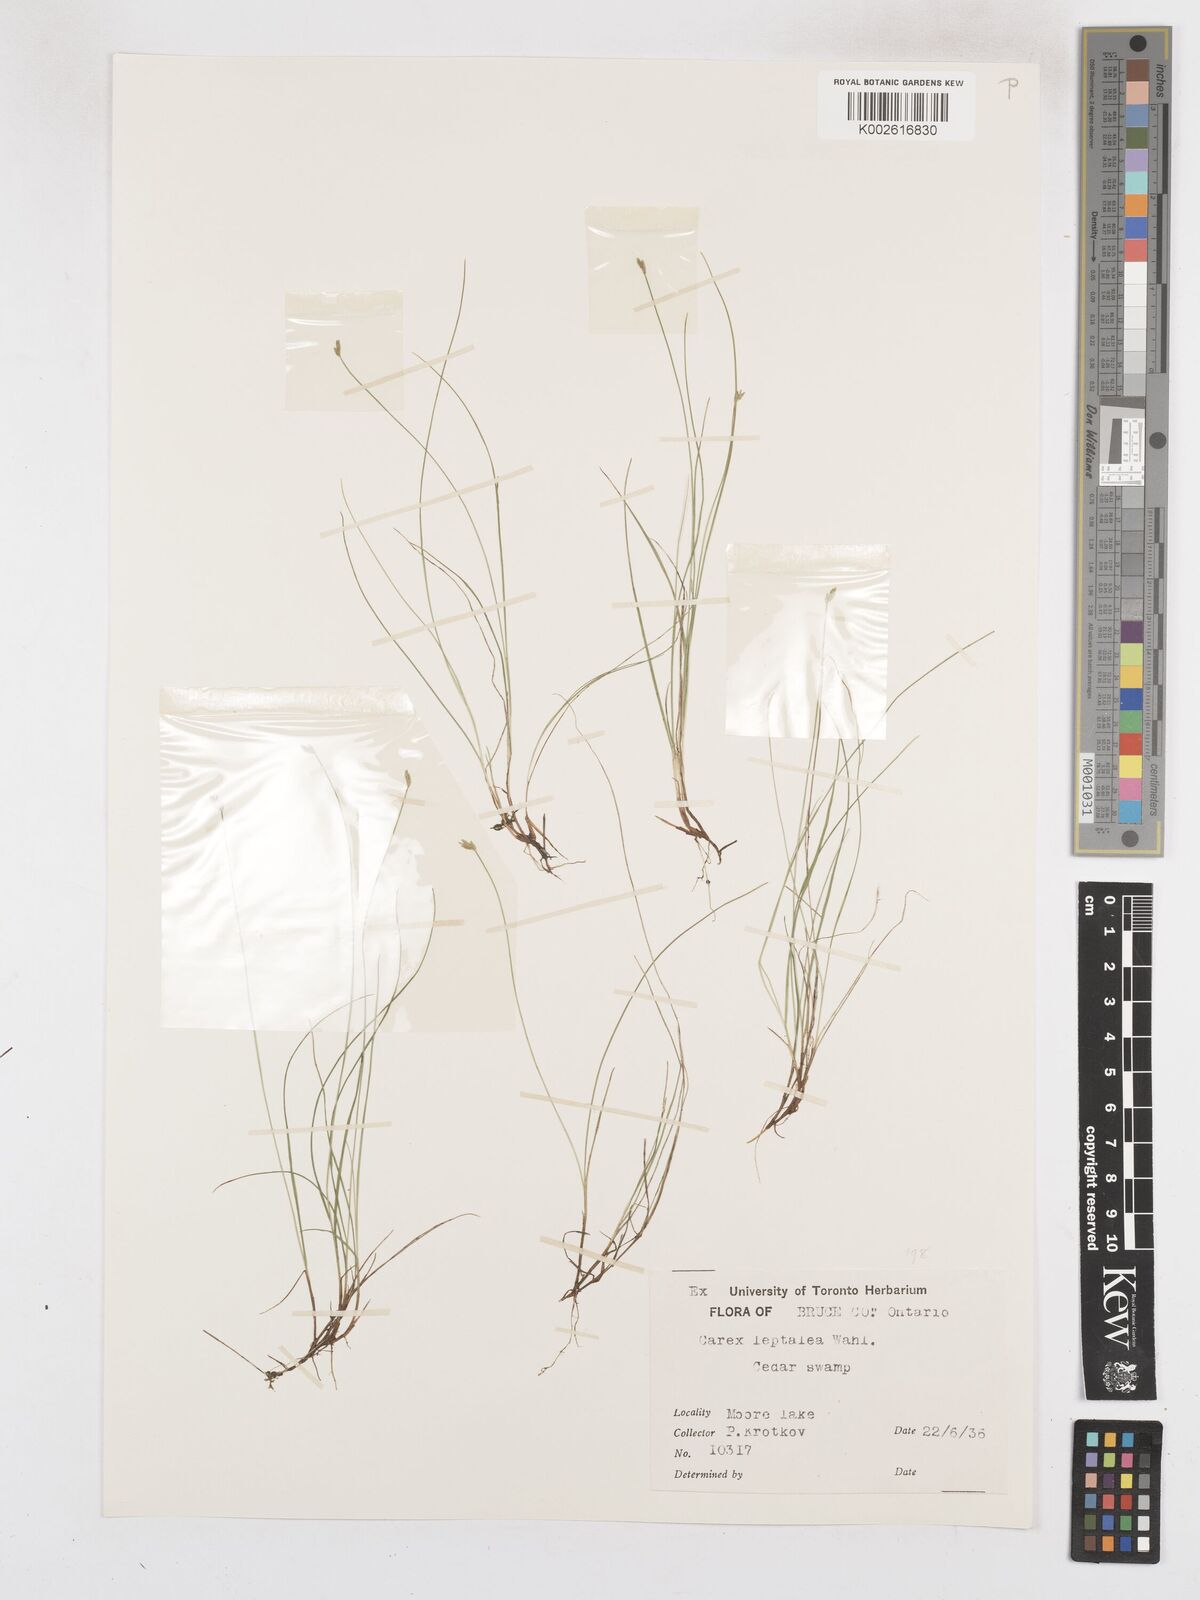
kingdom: Plantae
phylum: Tracheophyta
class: Liliopsida
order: Poales
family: Cyperaceae
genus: Carex
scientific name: Carex leptalea
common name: Bristly-stalked sedge
